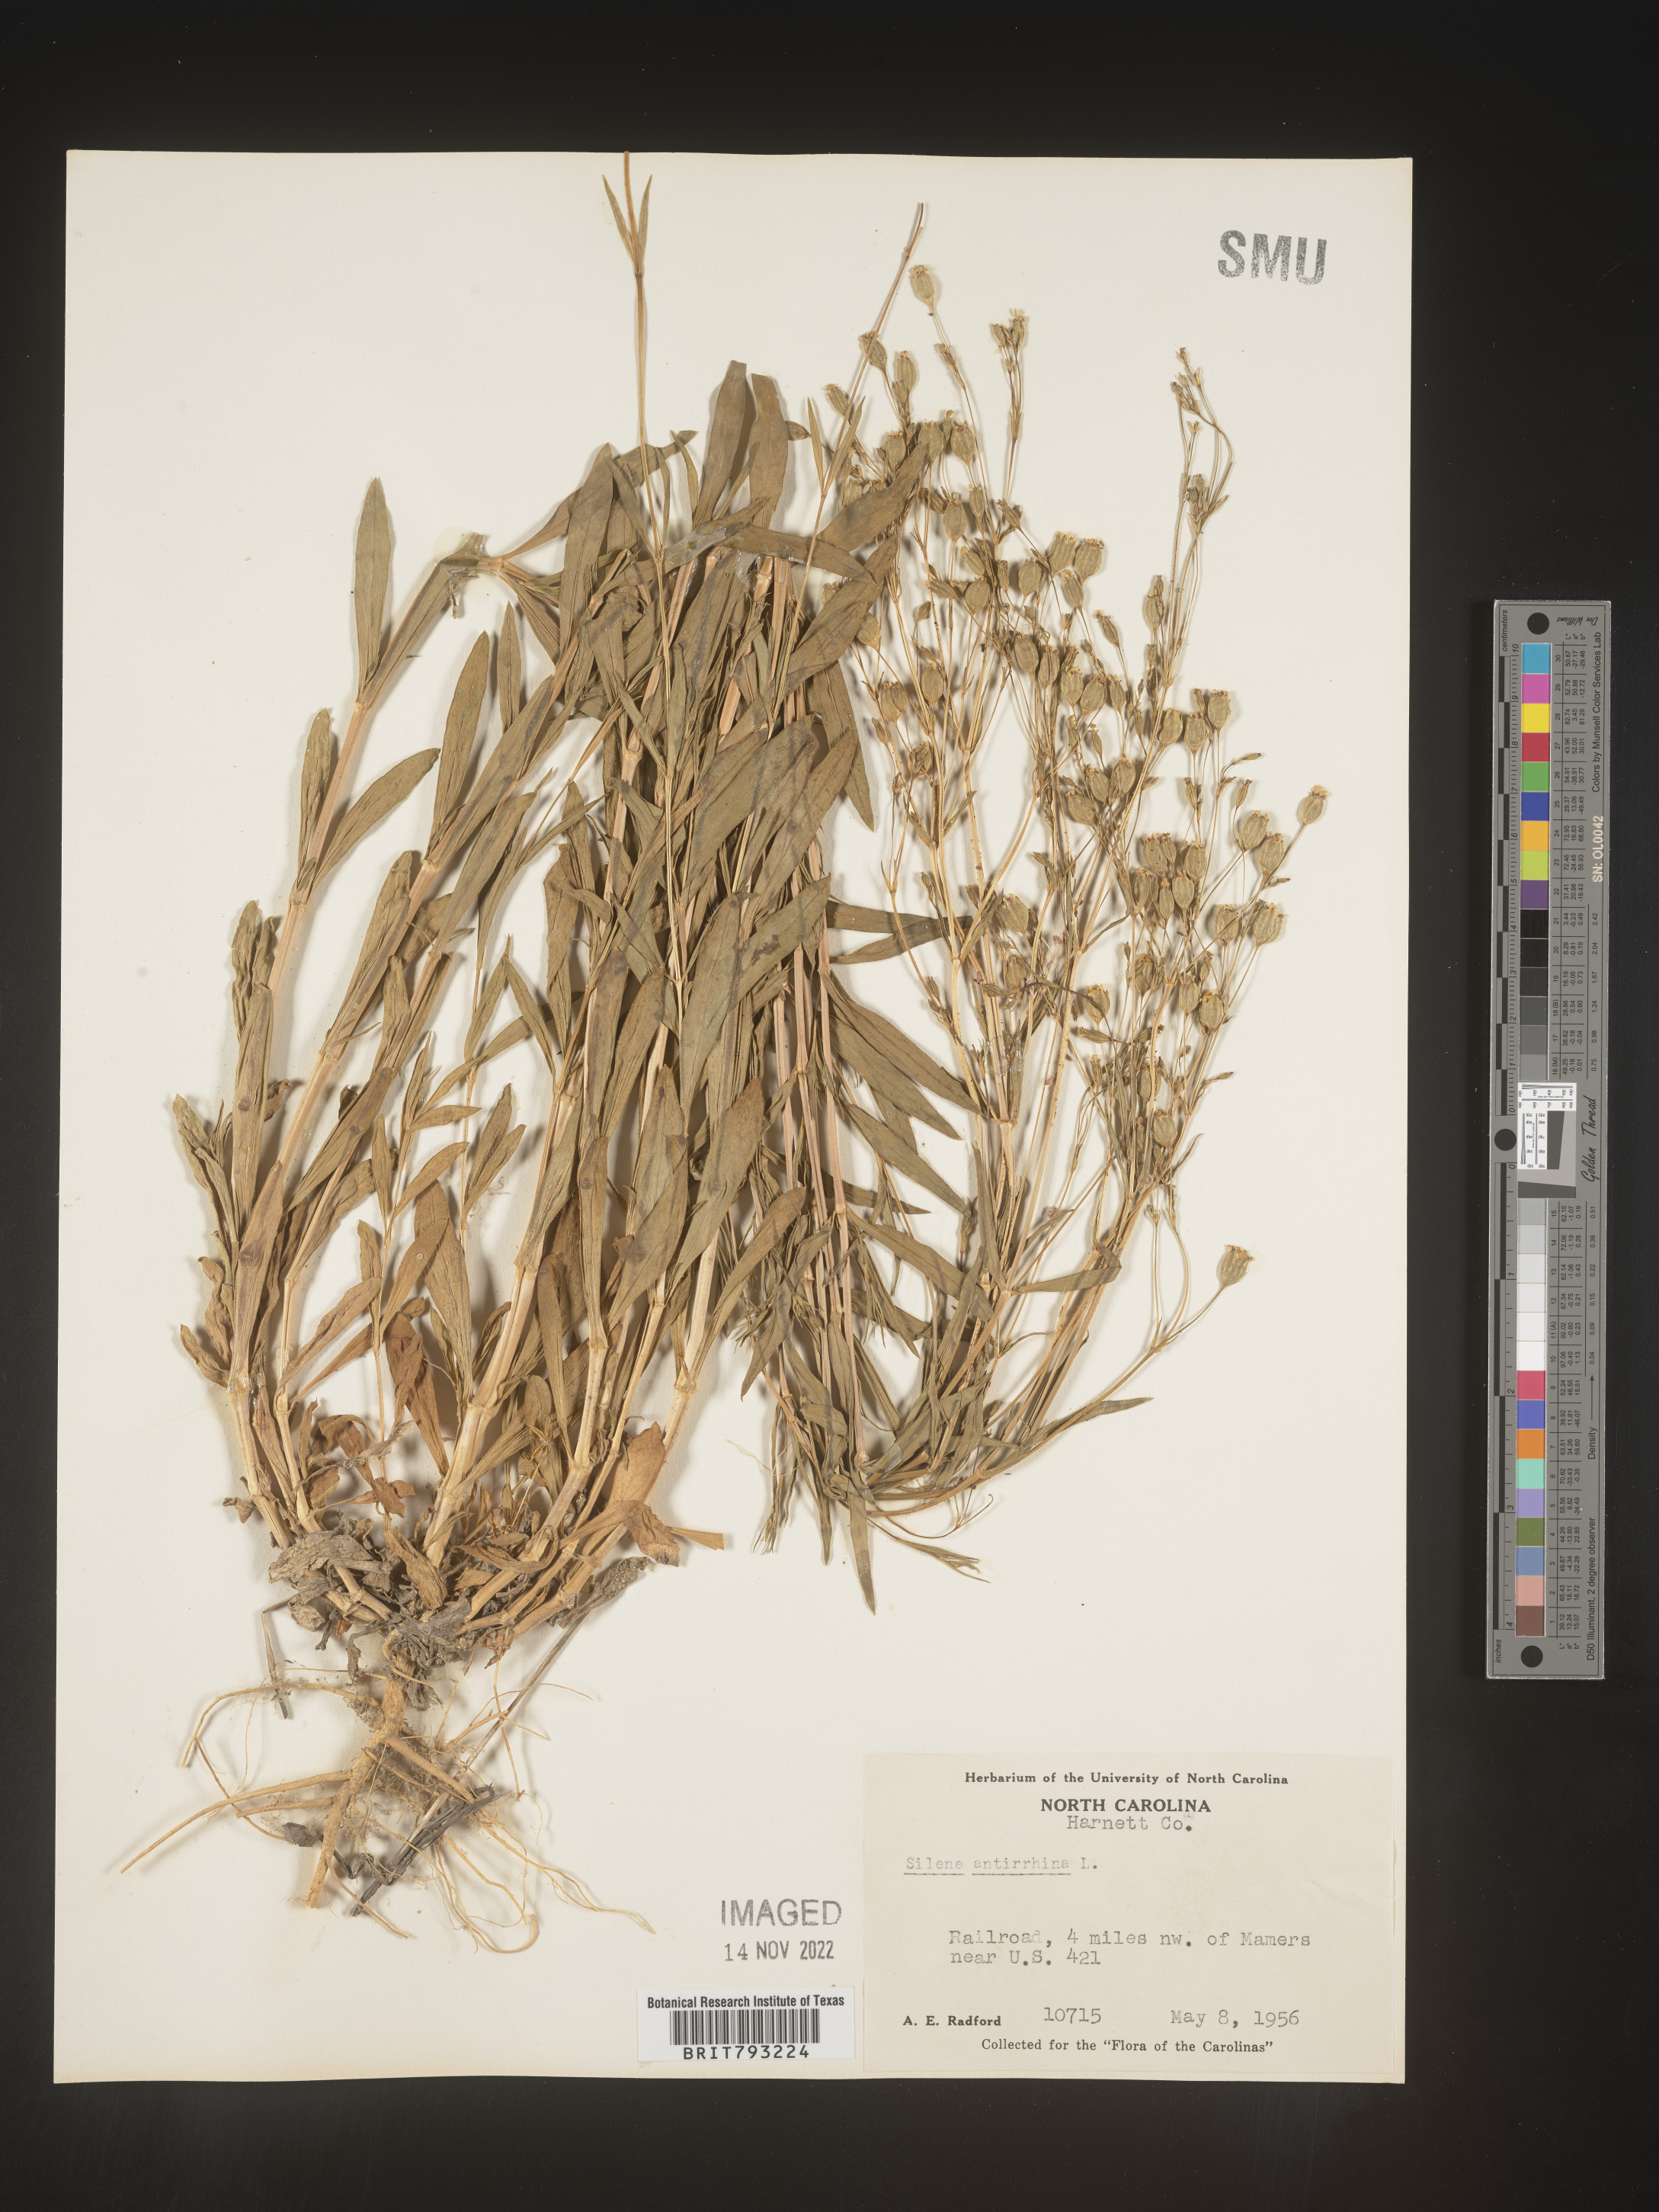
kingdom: Plantae
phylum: Tracheophyta
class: Magnoliopsida
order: Caryophyllales
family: Caryophyllaceae
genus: Silene
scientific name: Silene antirrhina
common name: Sleepy catchfly
